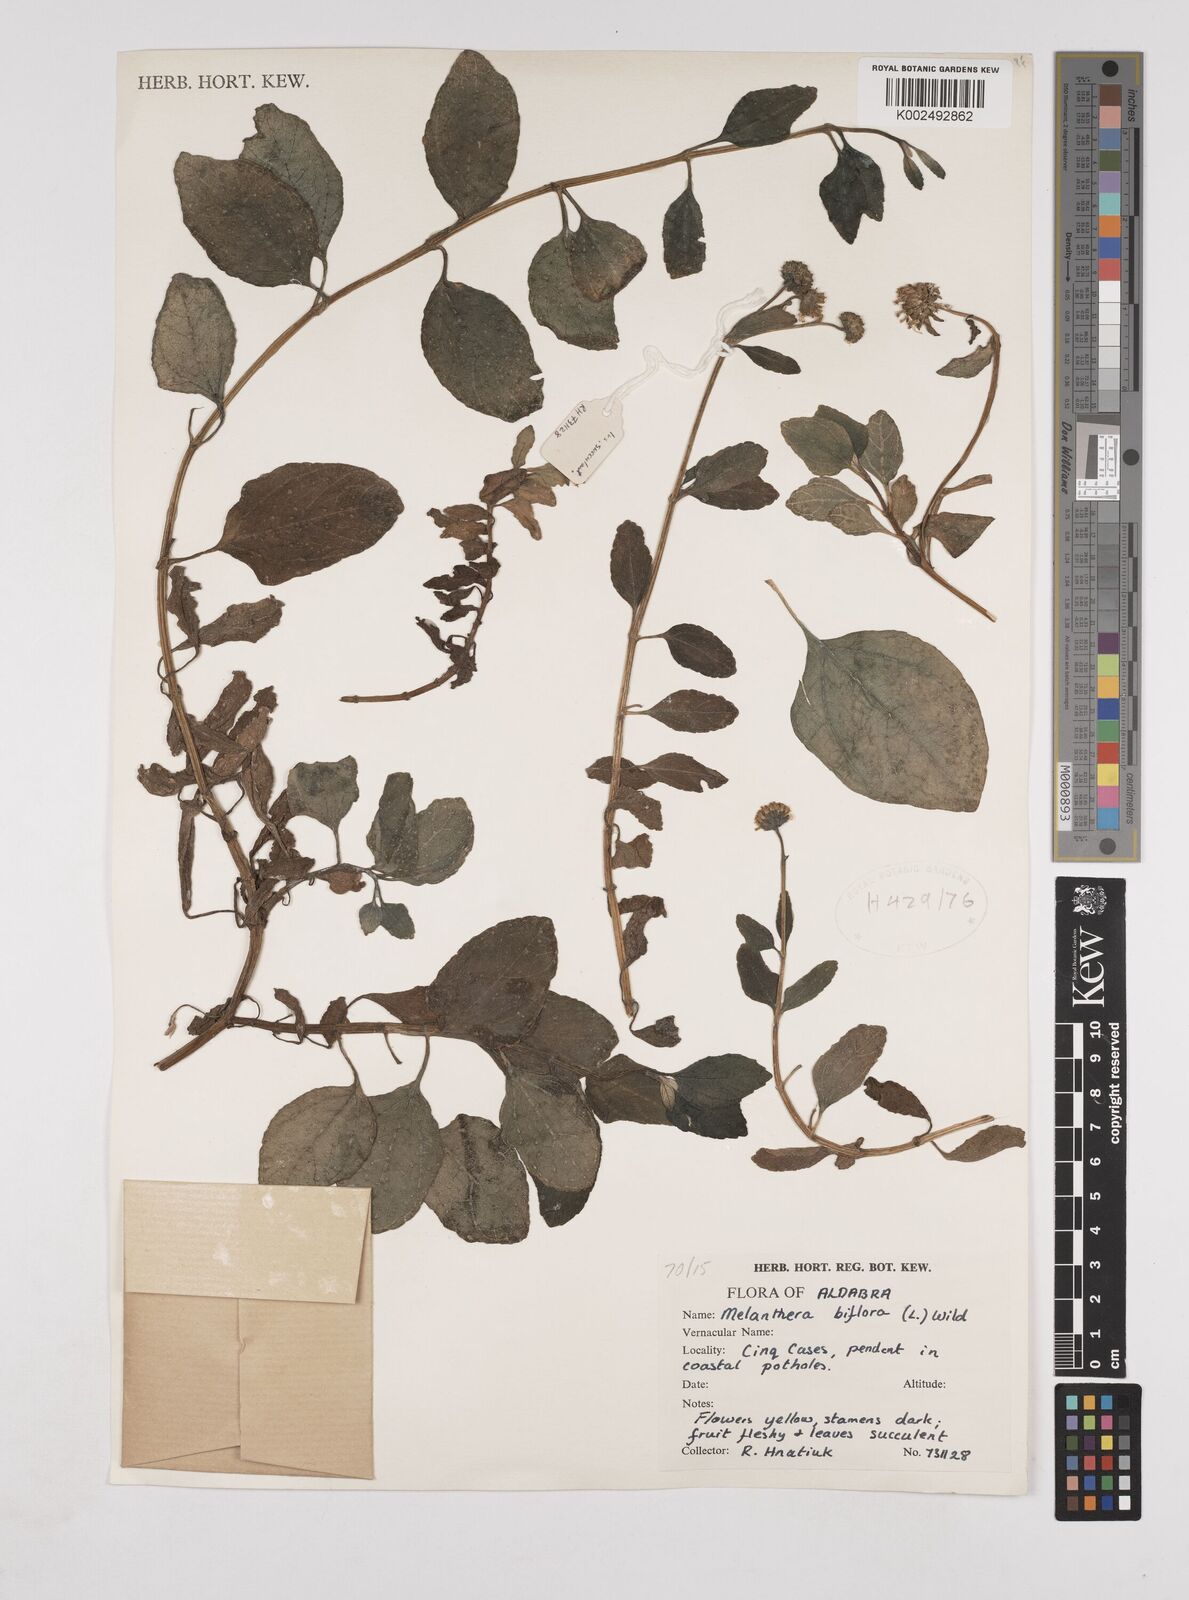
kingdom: Plantae
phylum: Tracheophyta
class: Magnoliopsida
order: Asterales
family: Asteraceae
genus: Wollastonia
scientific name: Wollastonia biflora
